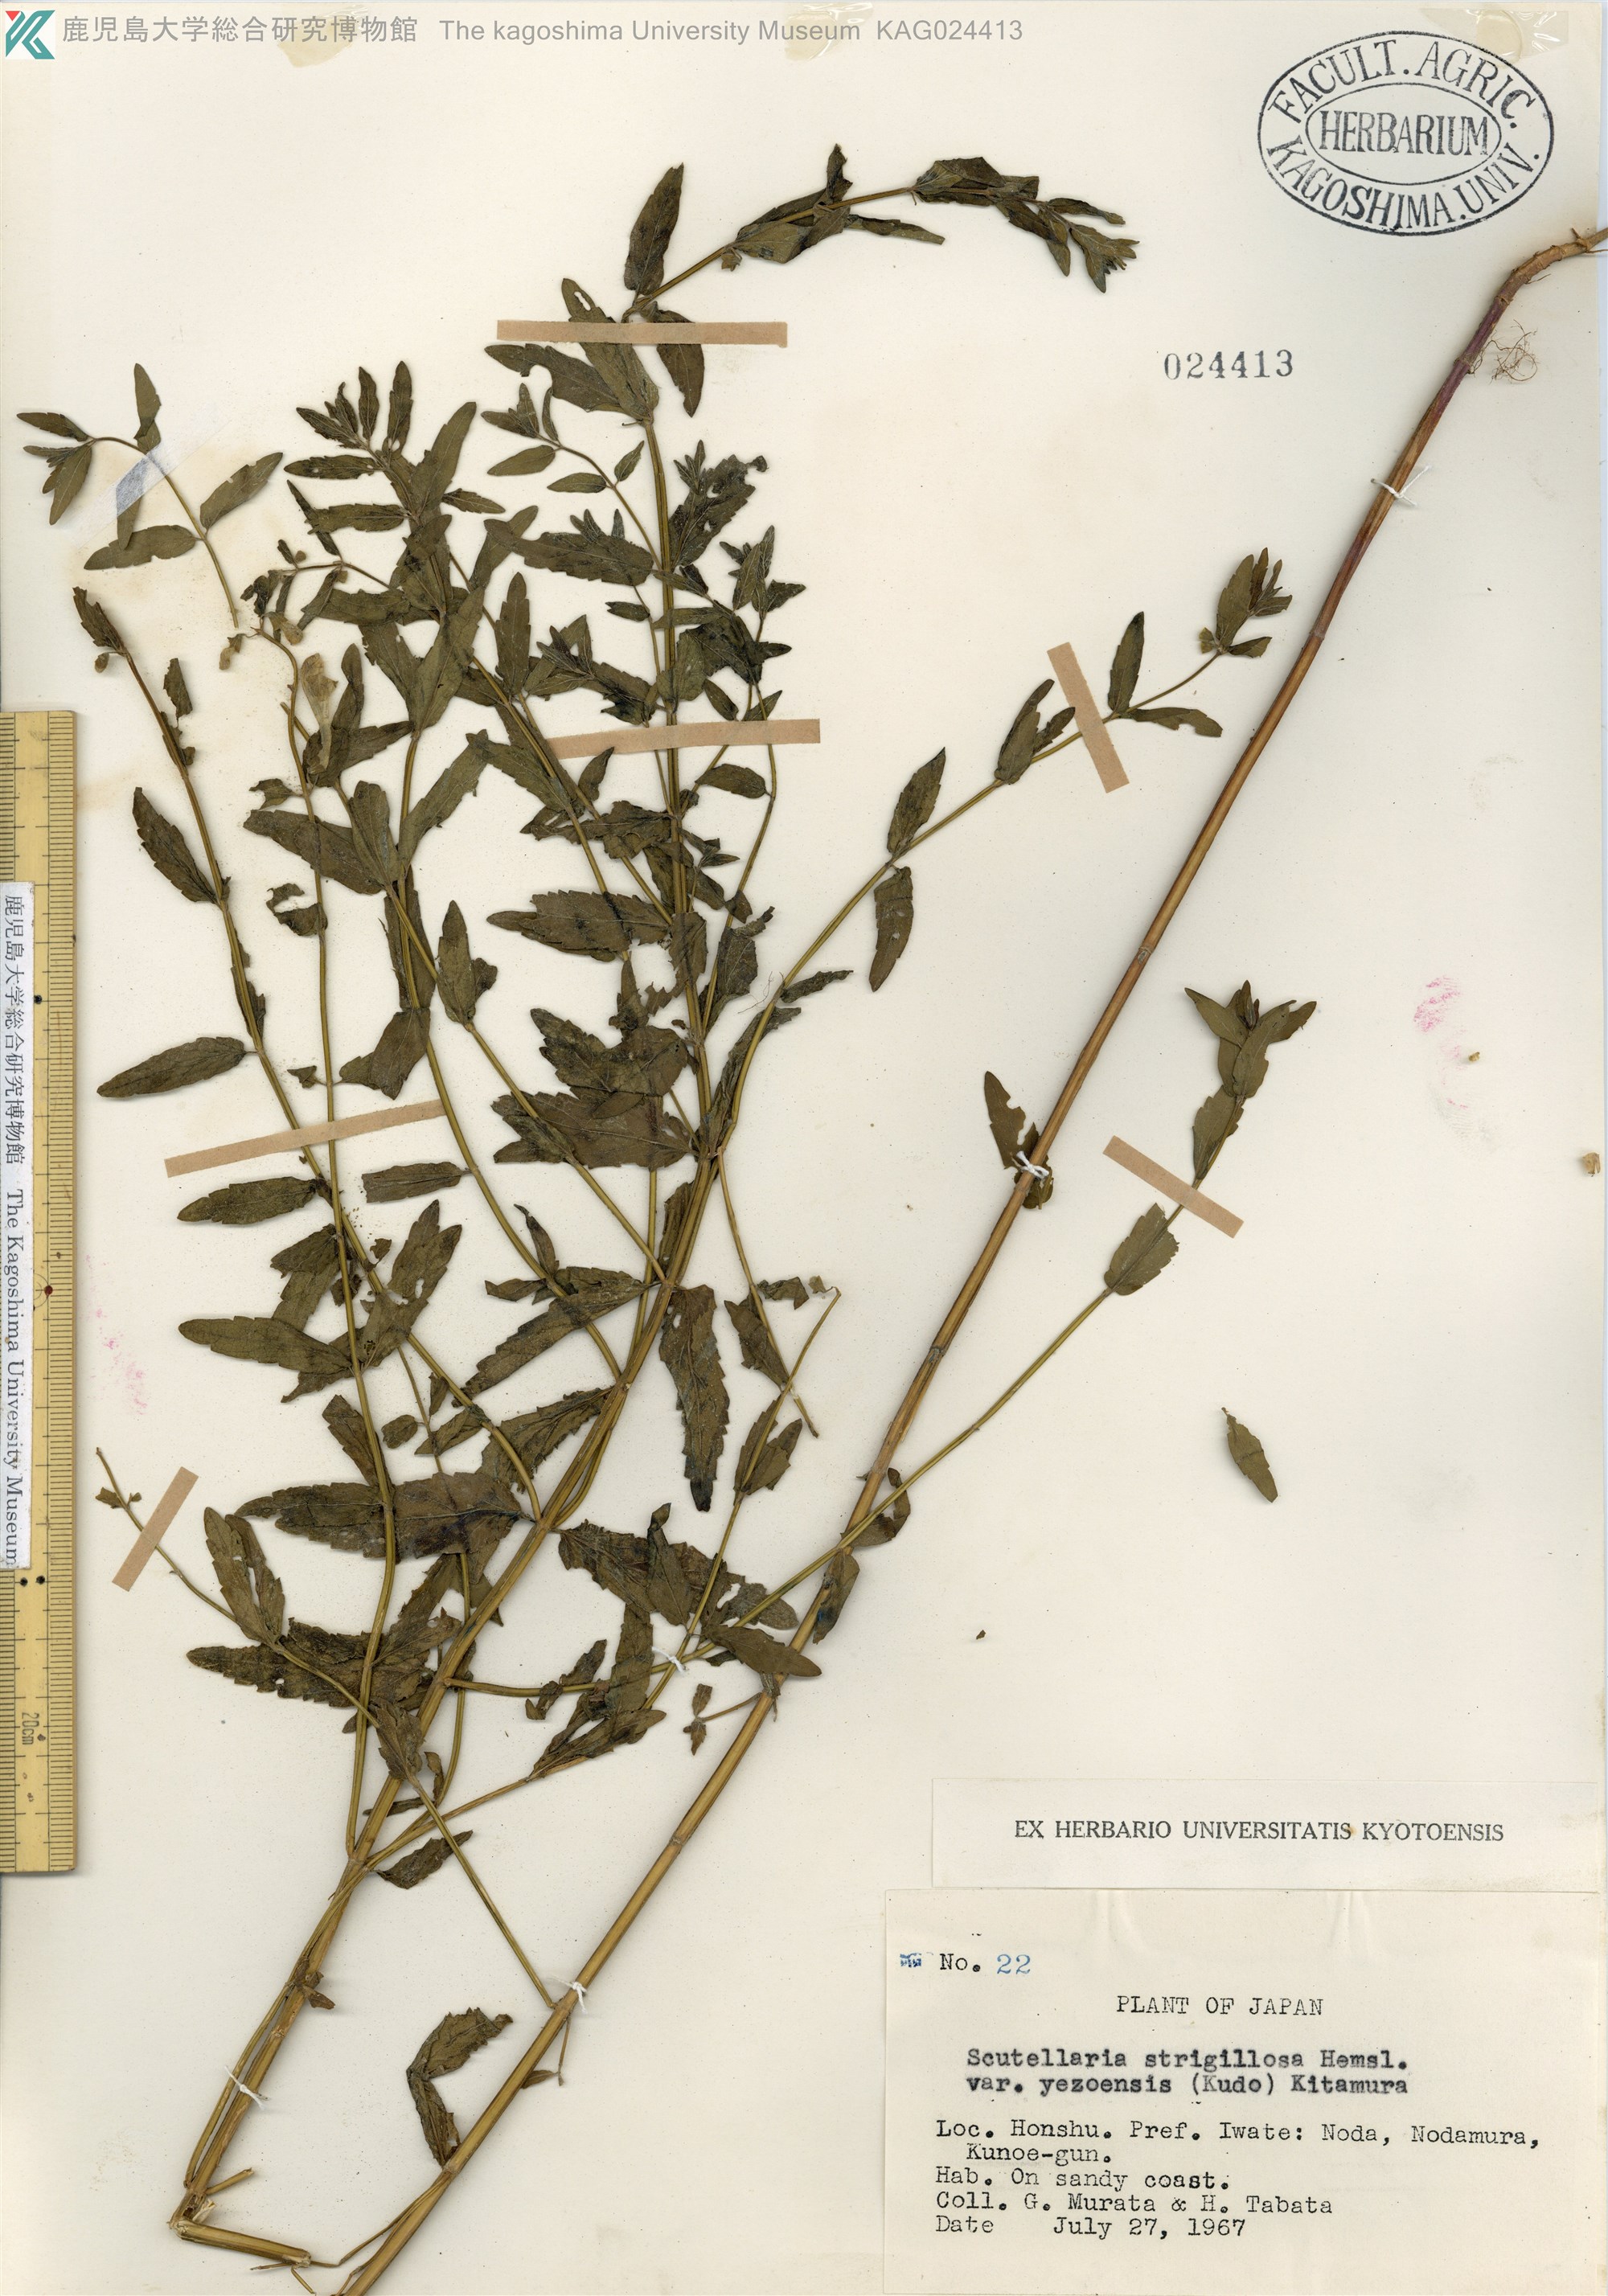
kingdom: Plantae
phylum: Tracheophyta
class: Magnoliopsida
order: Lamiales
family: Lamiaceae
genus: Scutellaria
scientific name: Scutellaria yezoensis
